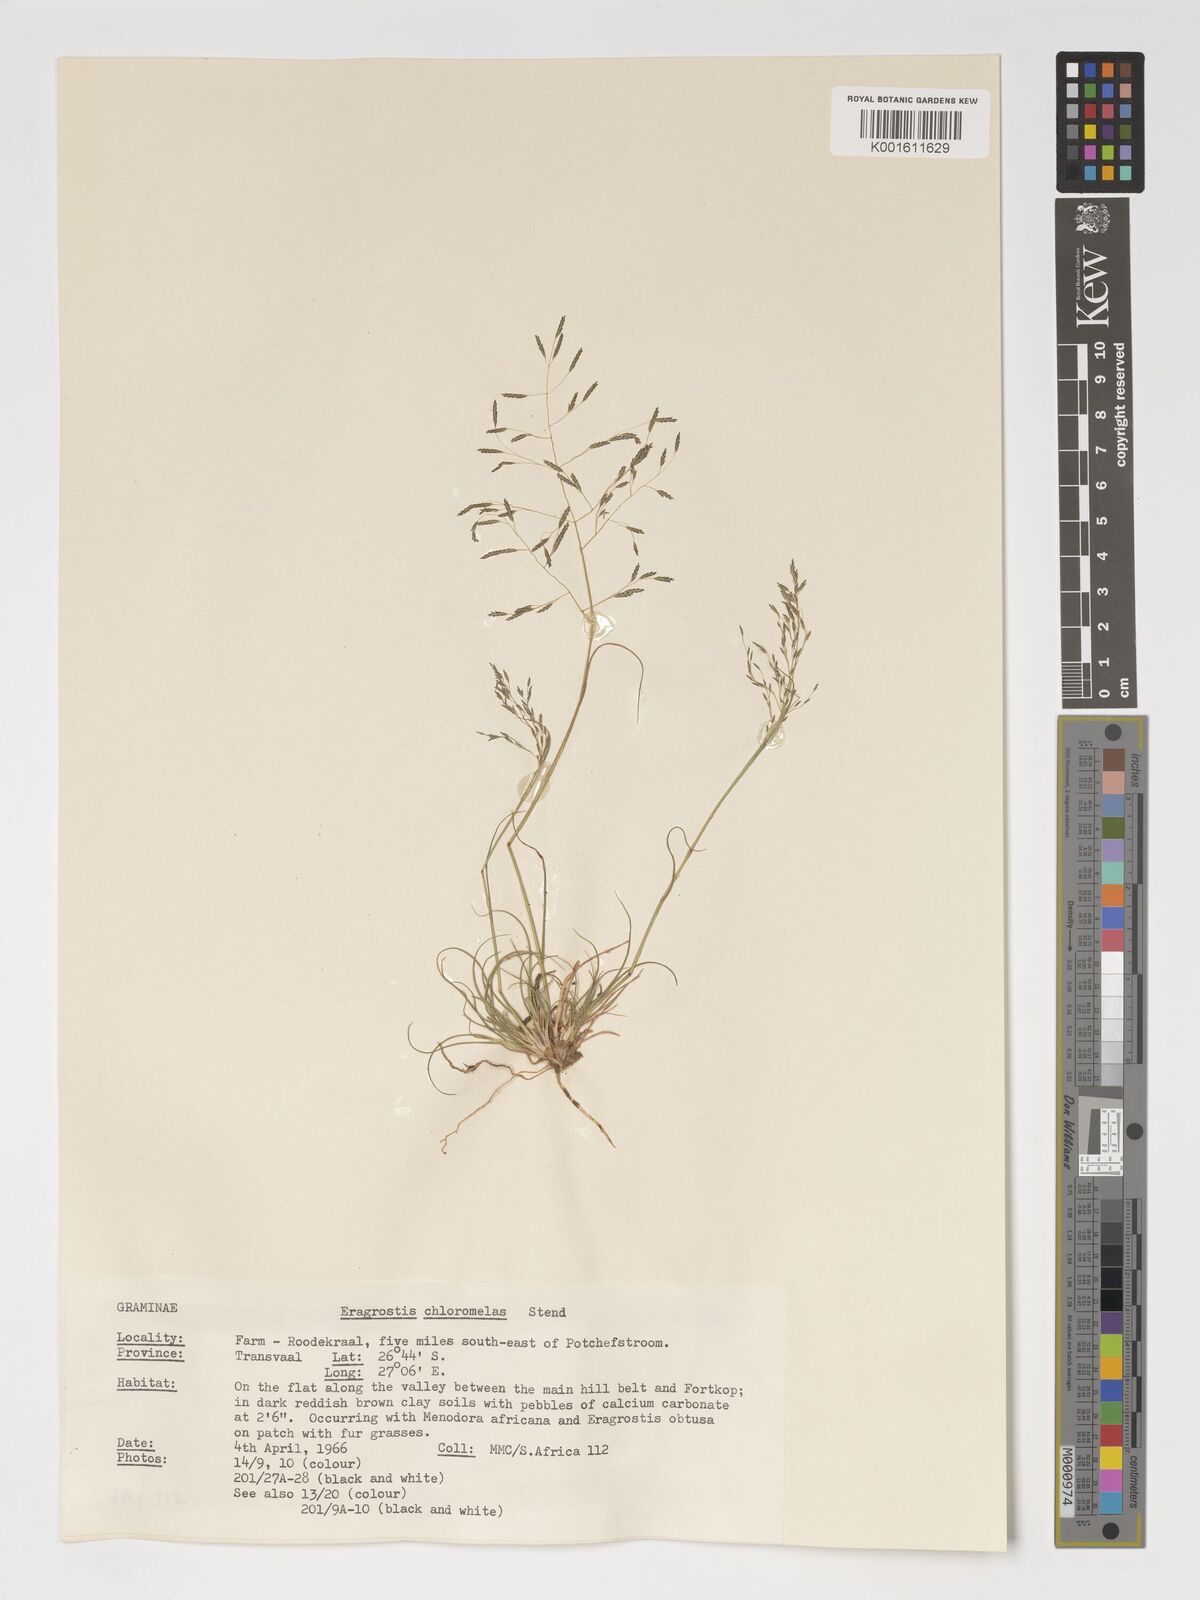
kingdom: Plantae
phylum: Tracheophyta
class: Liliopsida
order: Poales
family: Poaceae
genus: Eragrostis
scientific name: Eragrostis curvula
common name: African love-grass
